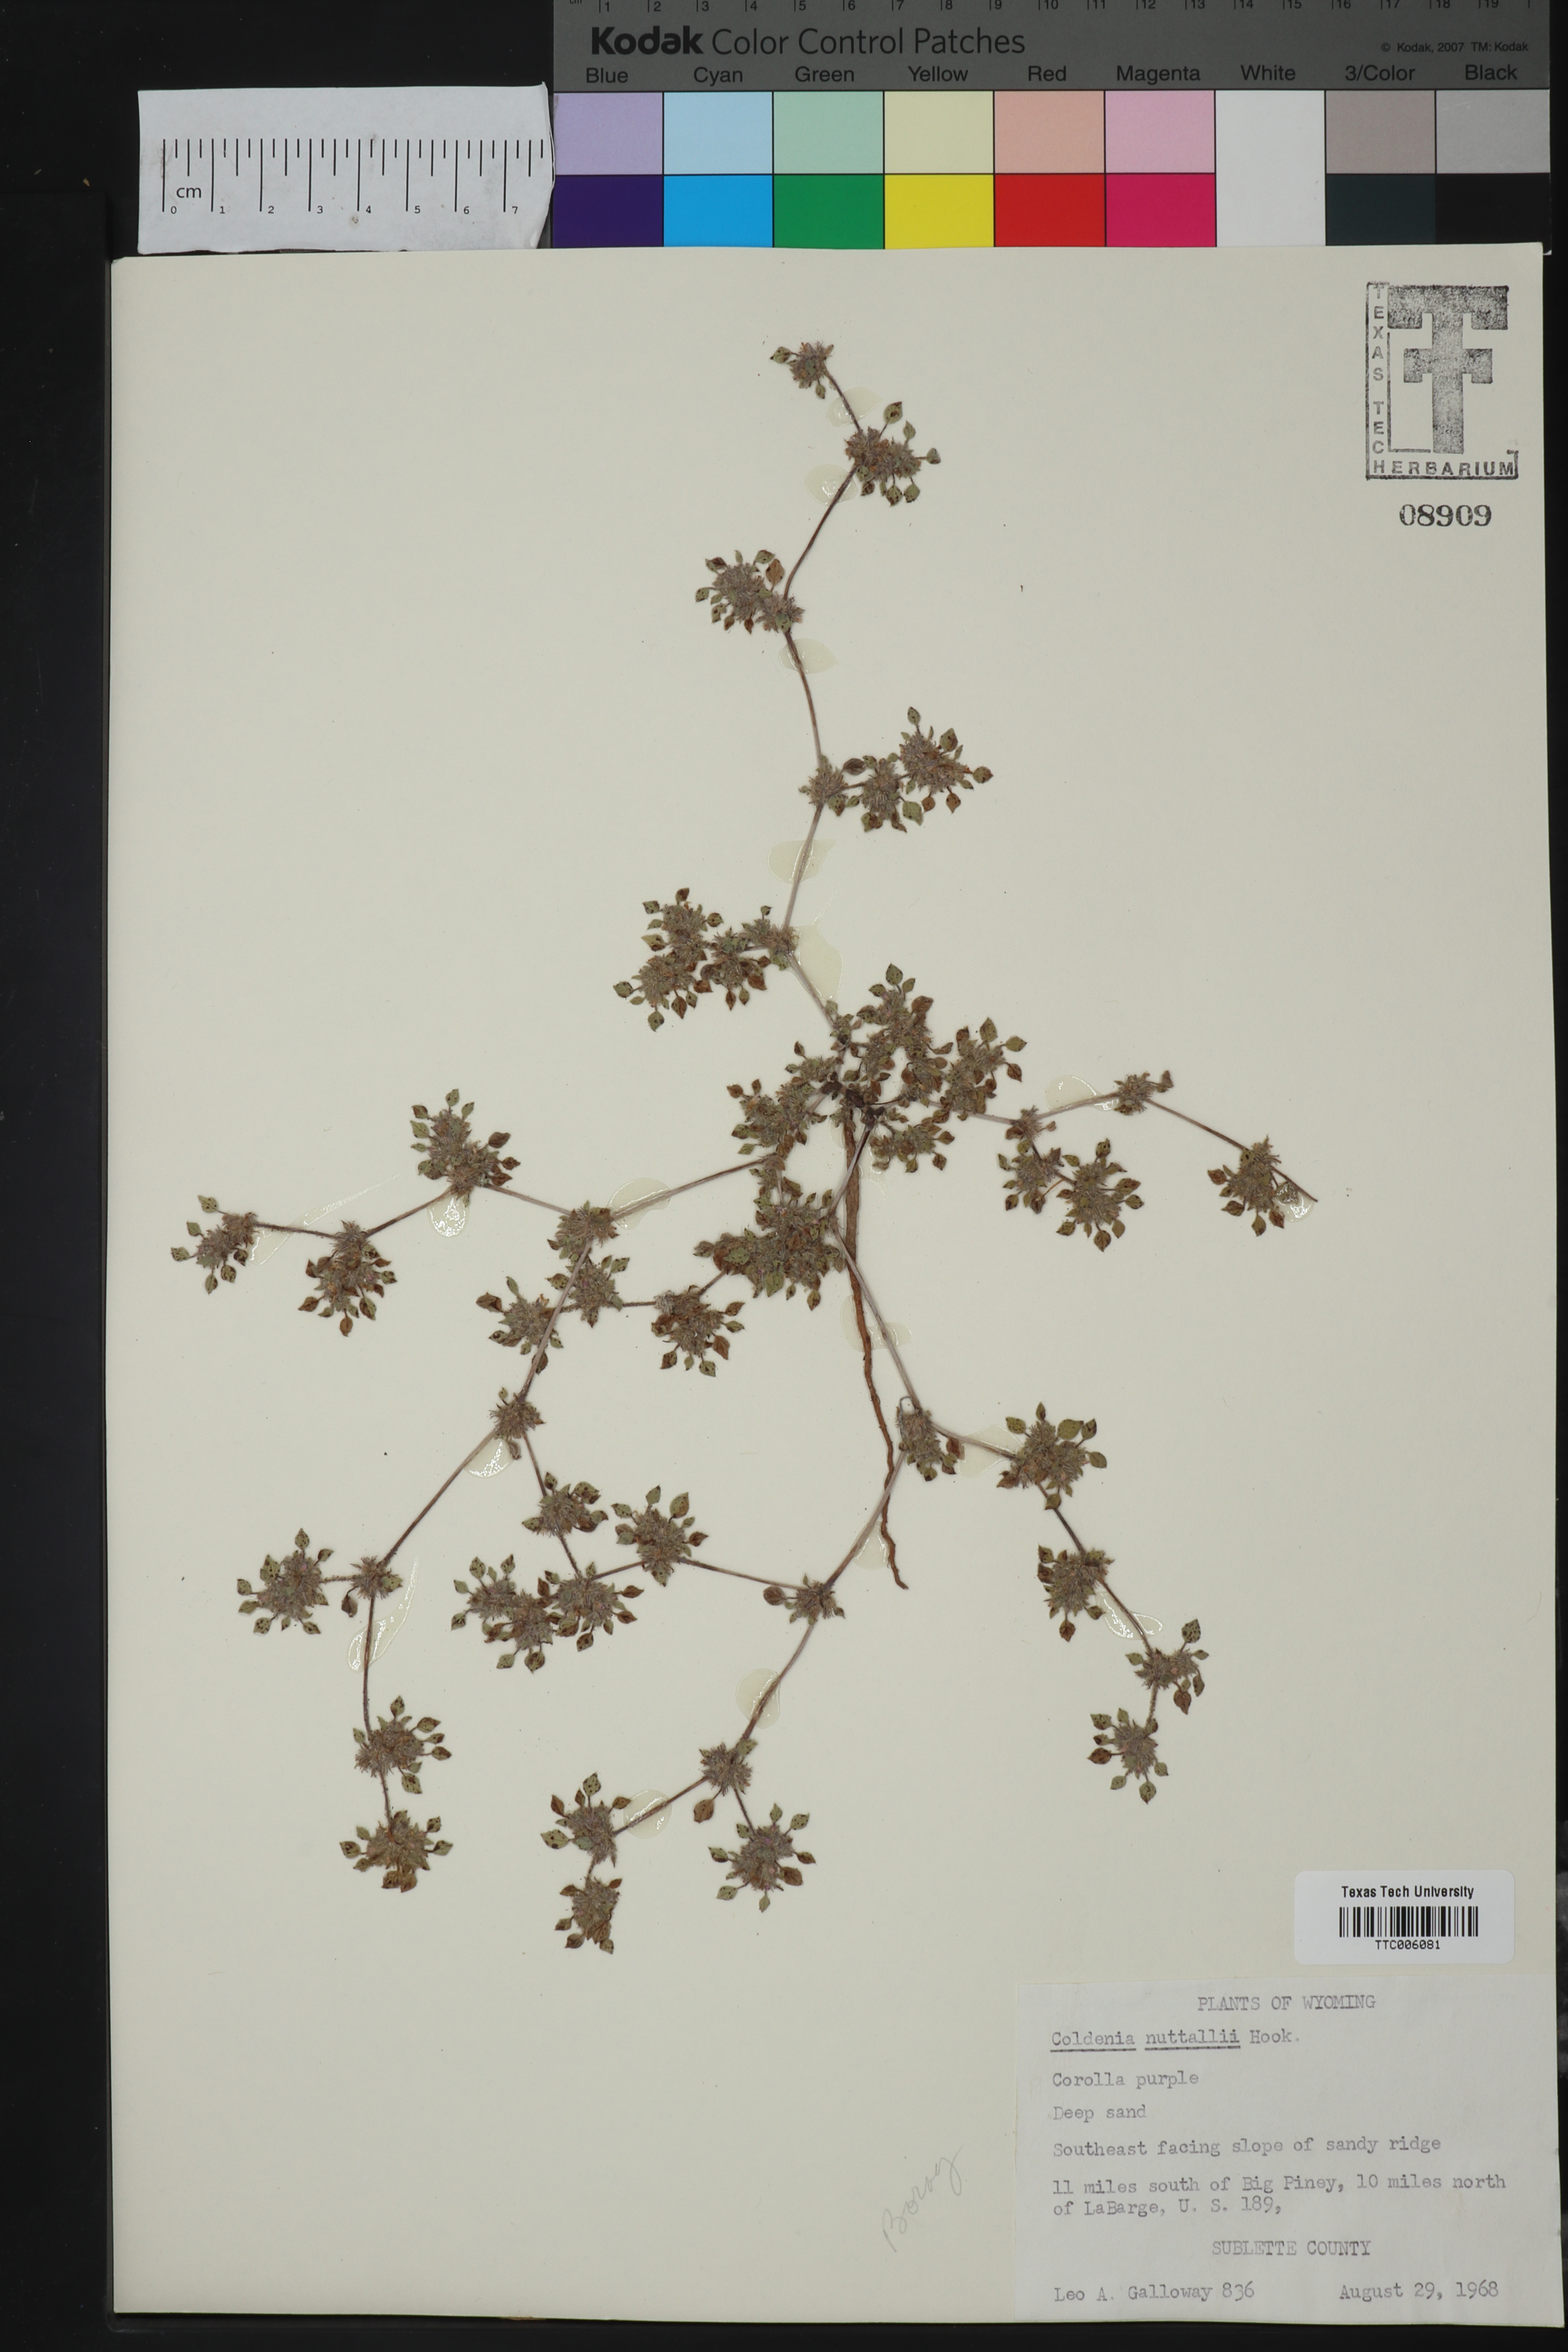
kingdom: Plantae
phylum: Tracheophyta
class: Magnoliopsida
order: Boraginales
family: Ehretiaceae
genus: Tiquilia
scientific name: Tiquilia nuttallii
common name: Rosette tiquilia
